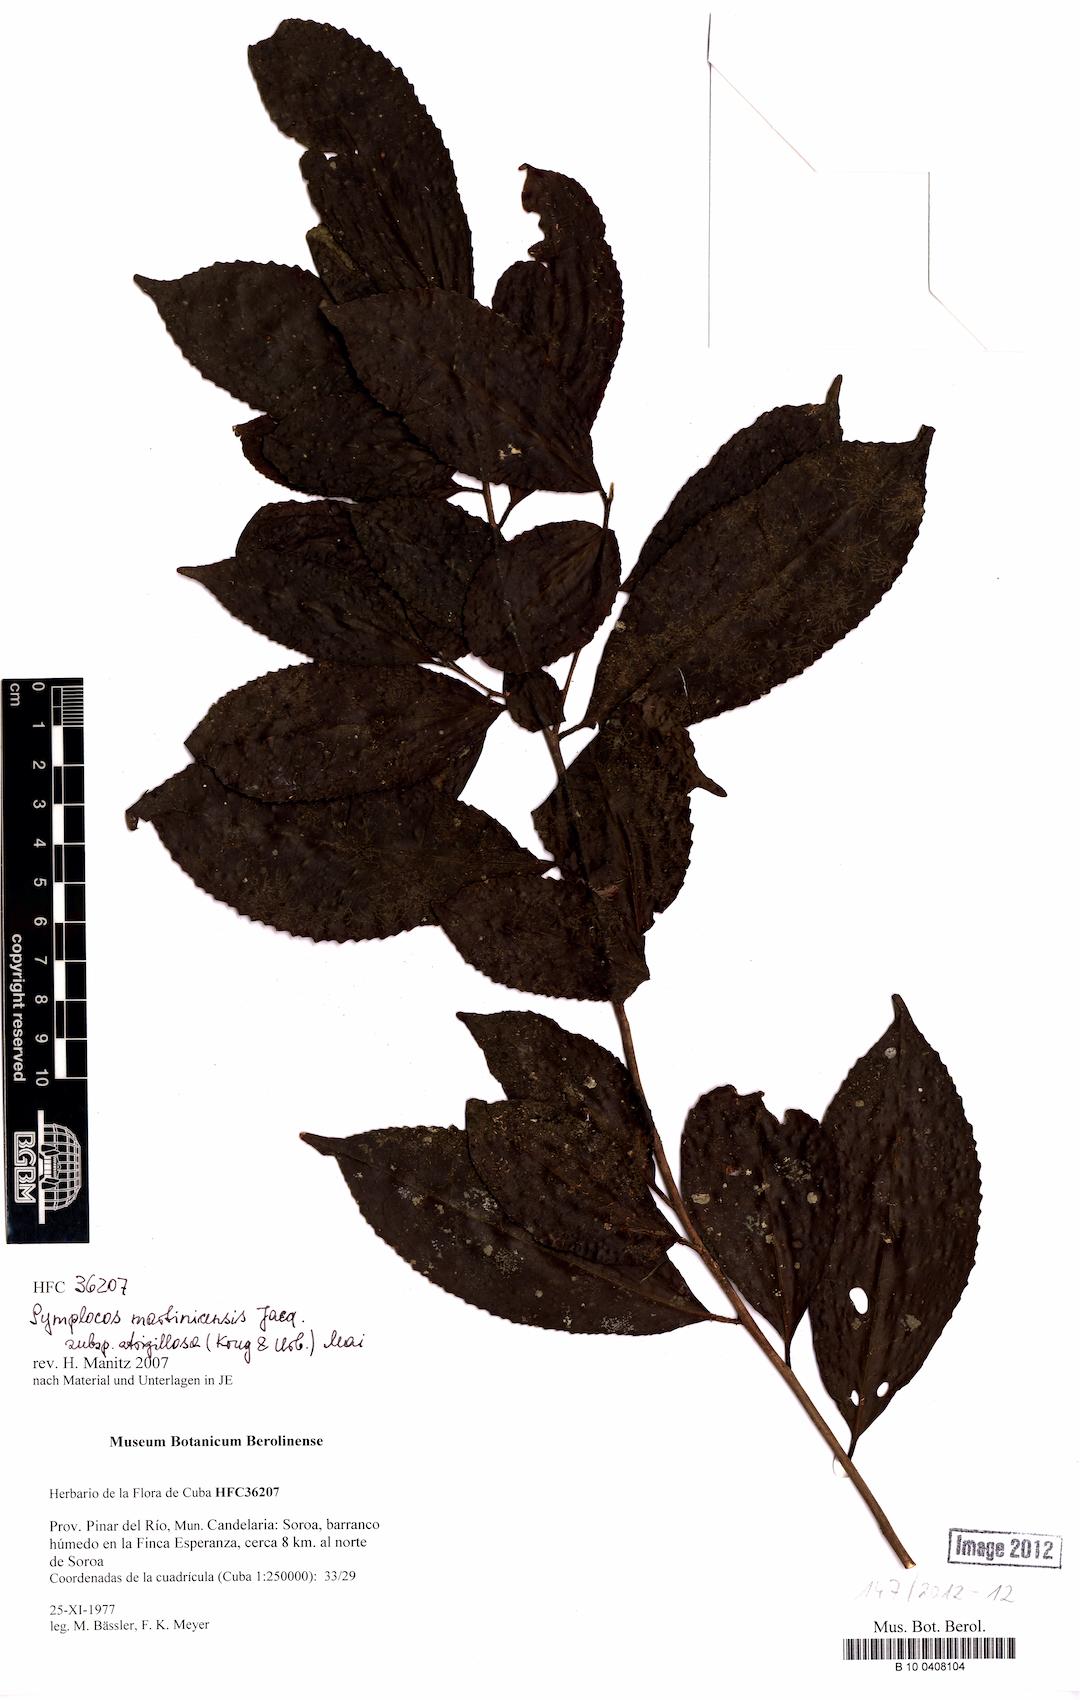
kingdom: Plantae
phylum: Tracheophyta
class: Magnoliopsida
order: Ericales
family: Symplocaceae
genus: Symplocos
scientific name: Symplocos jurgensenii
